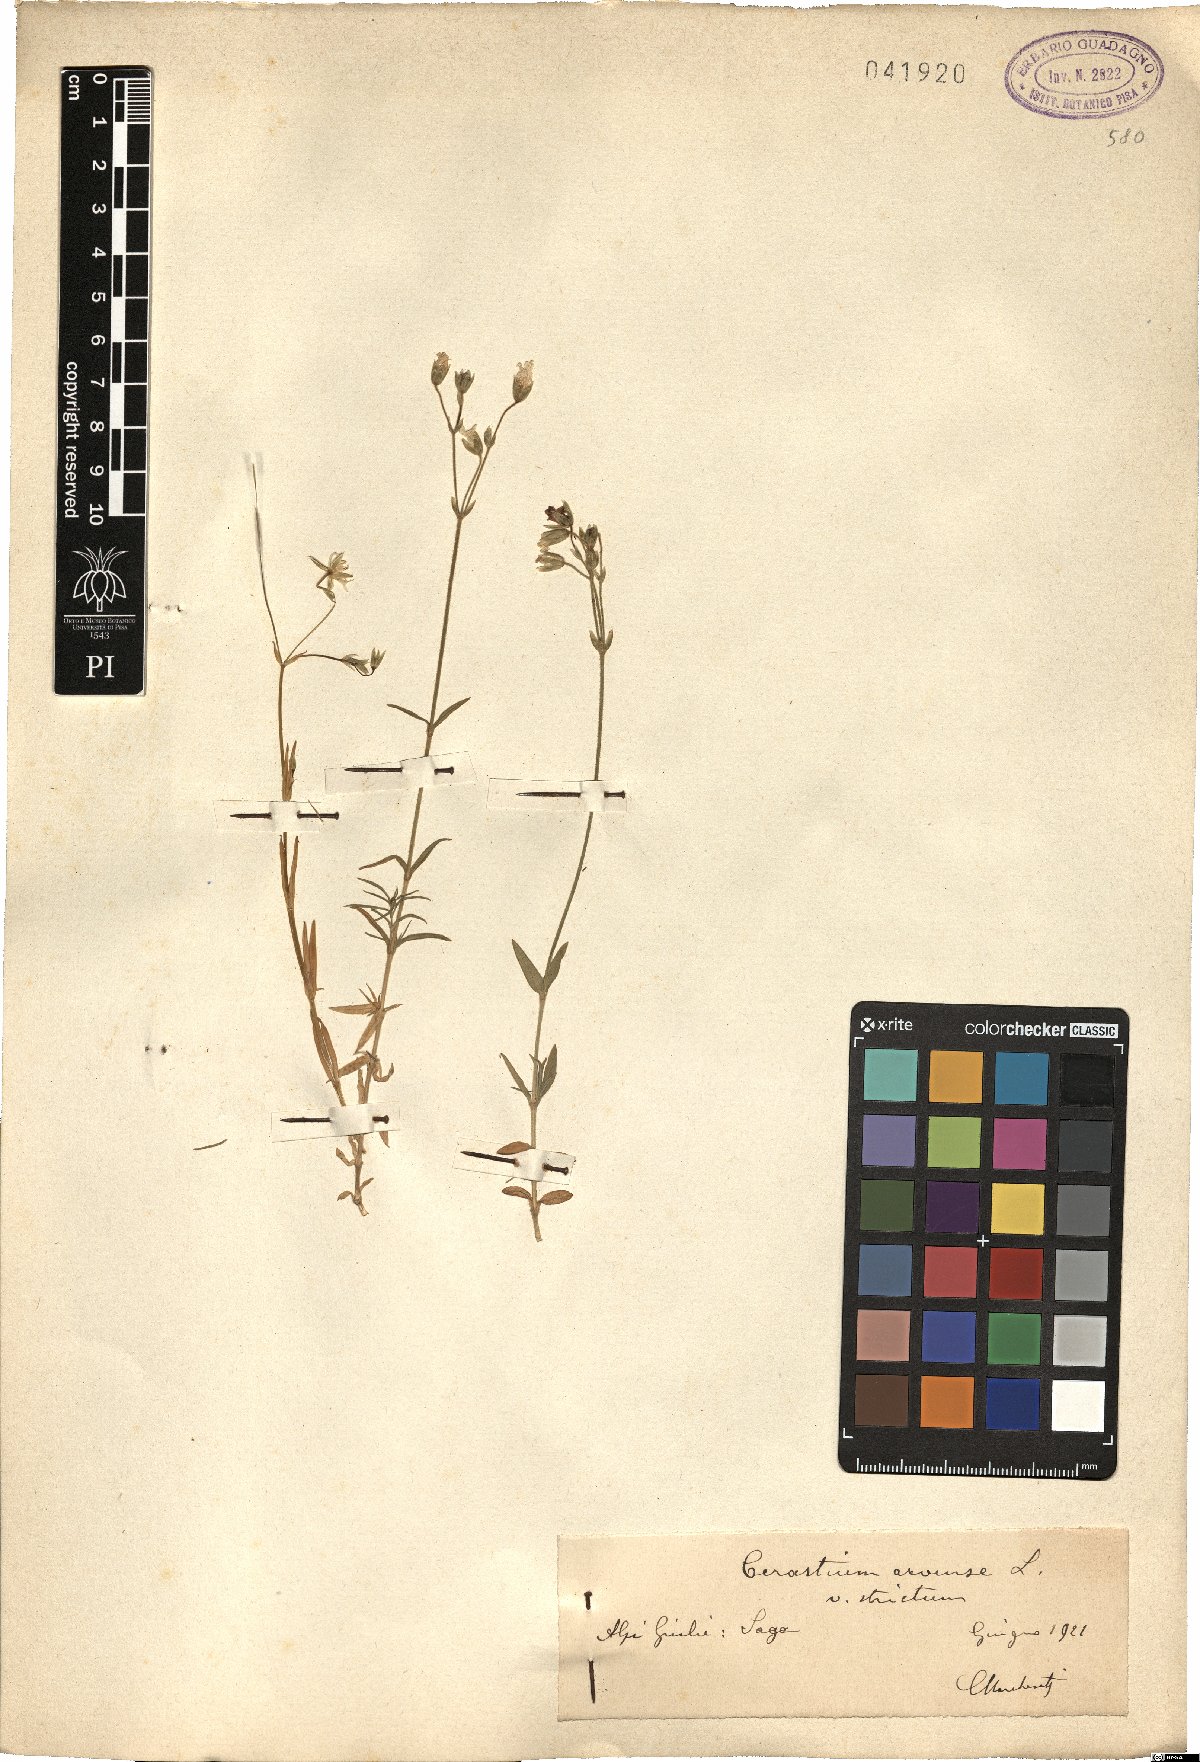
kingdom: Plantae
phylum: Tracheophyta
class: Magnoliopsida
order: Caryophyllales
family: Caryophyllaceae
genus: Cerastium
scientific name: Cerastium elongatum
